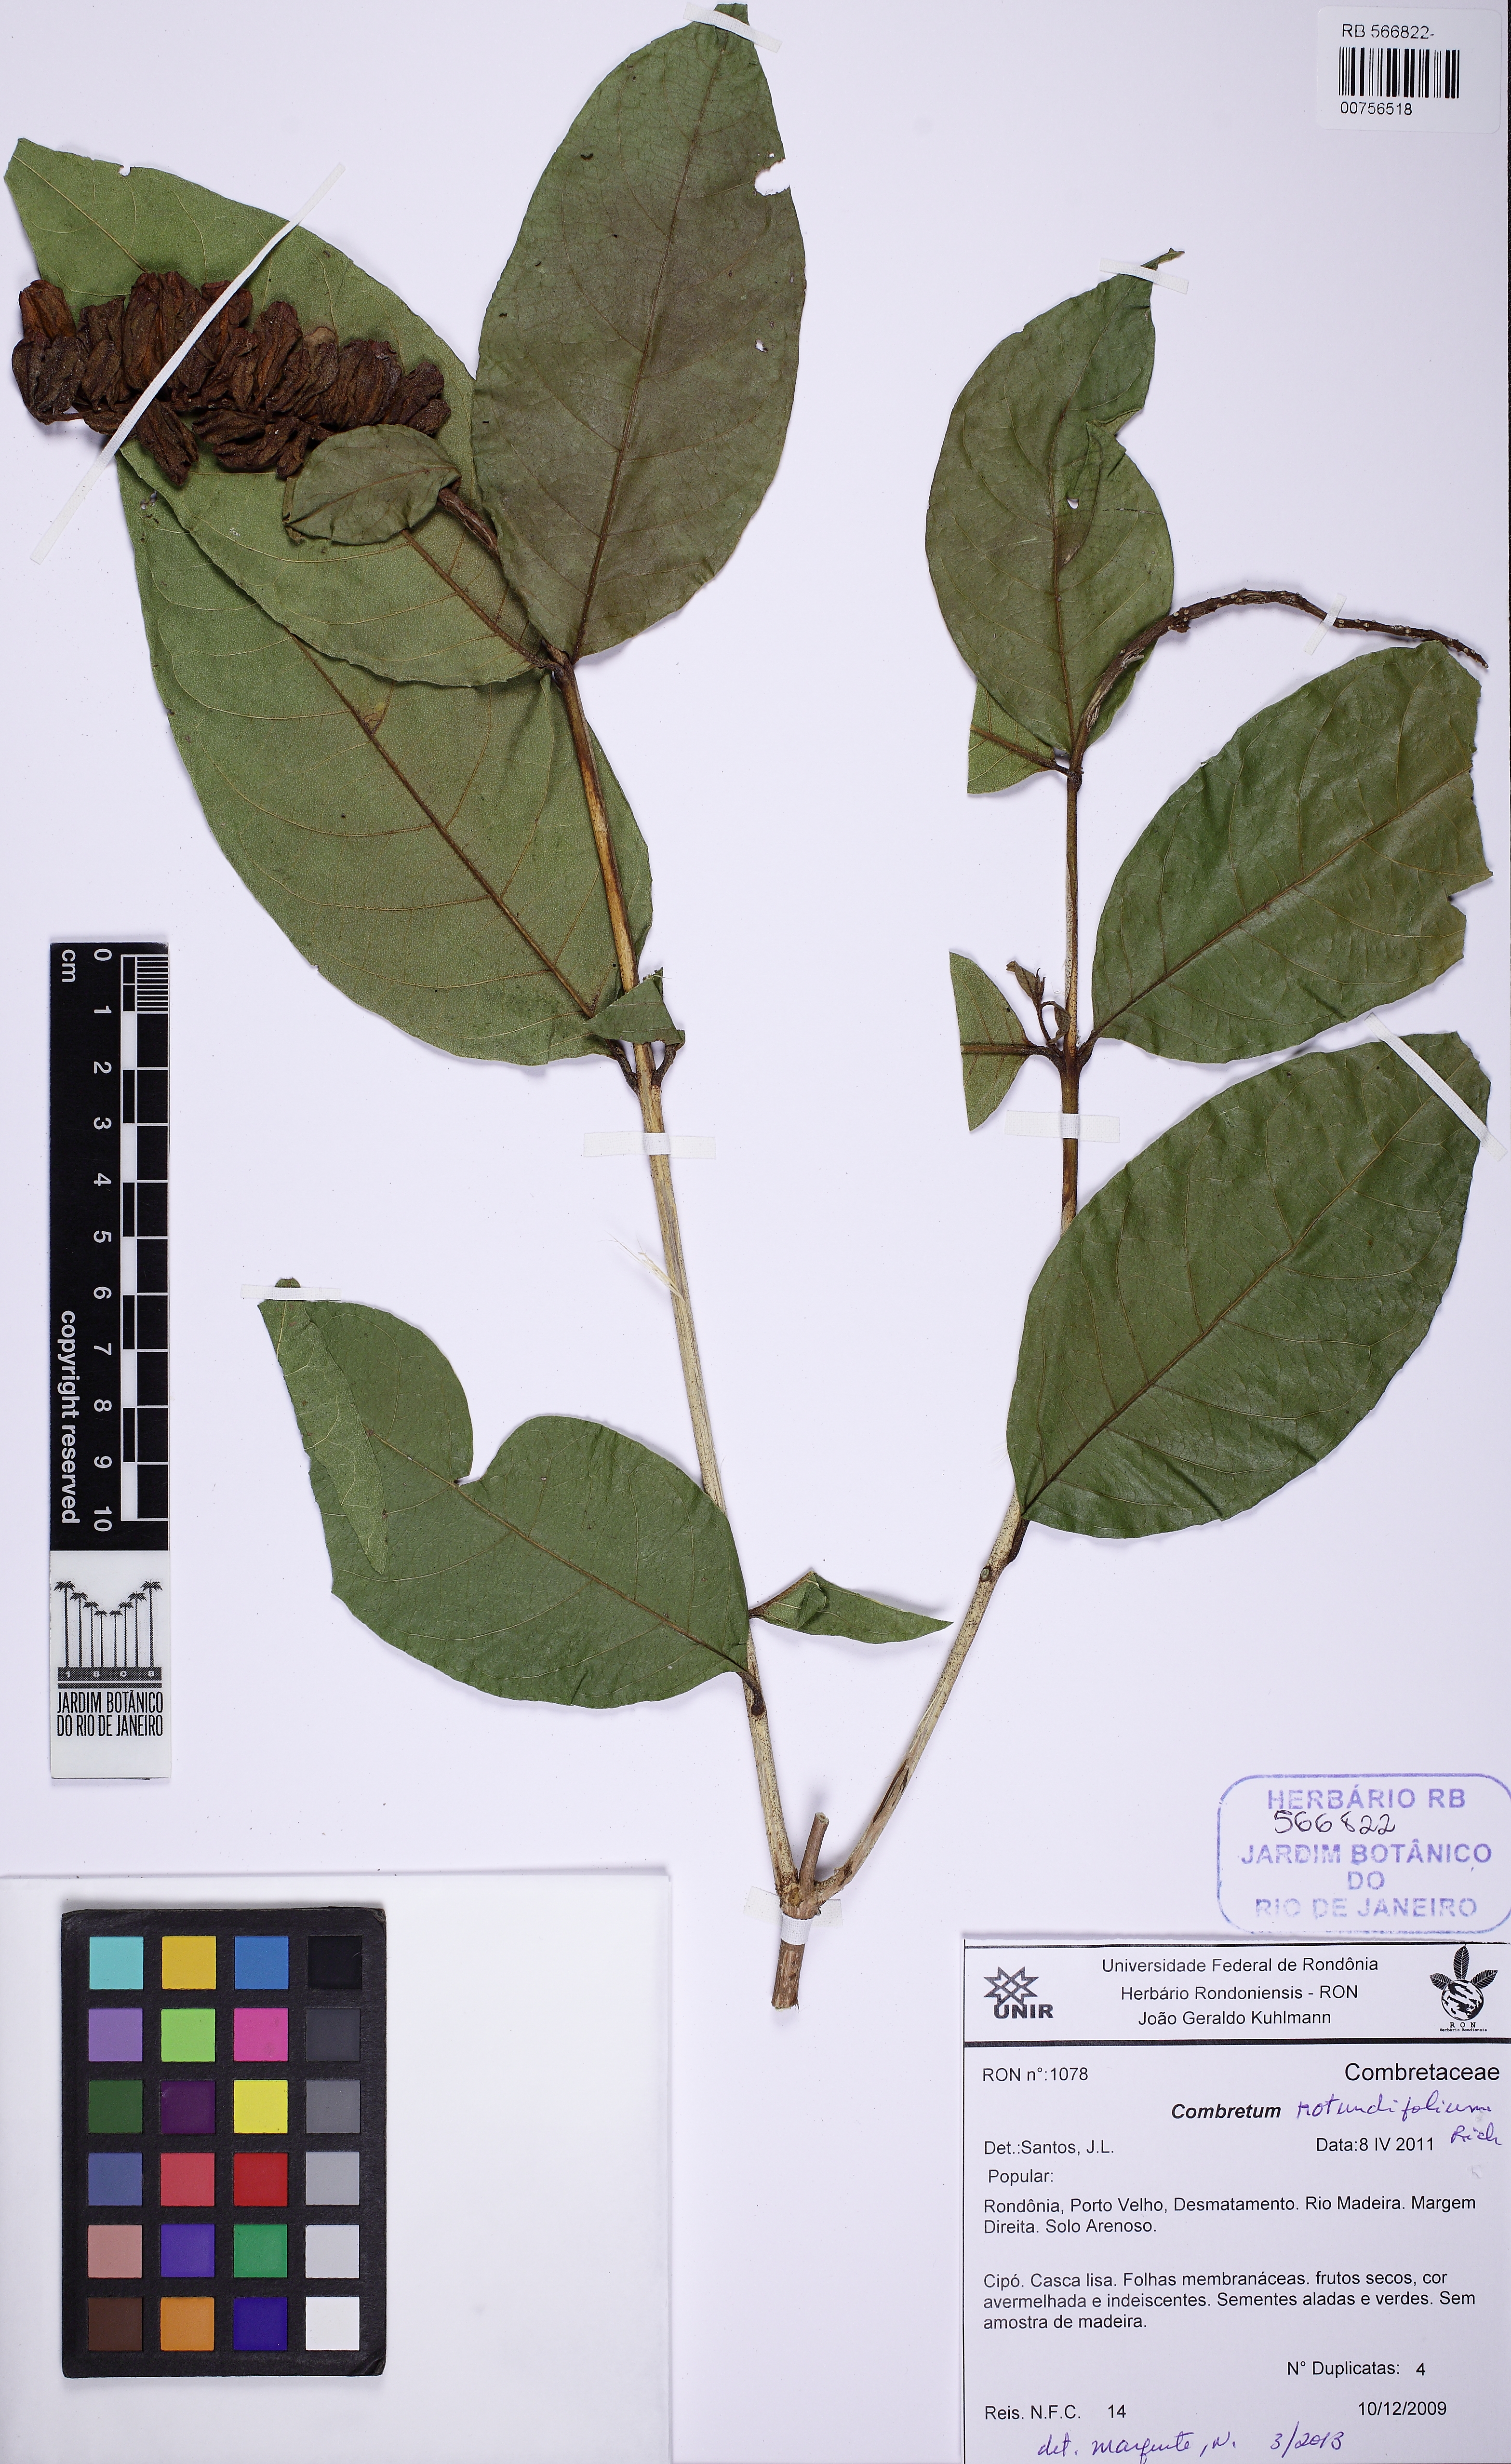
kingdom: Plantae
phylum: Tracheophyta
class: Magnoliopsida
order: Myrtales
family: Combretaceae
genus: Combretum
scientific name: Combretum rotundifolium
